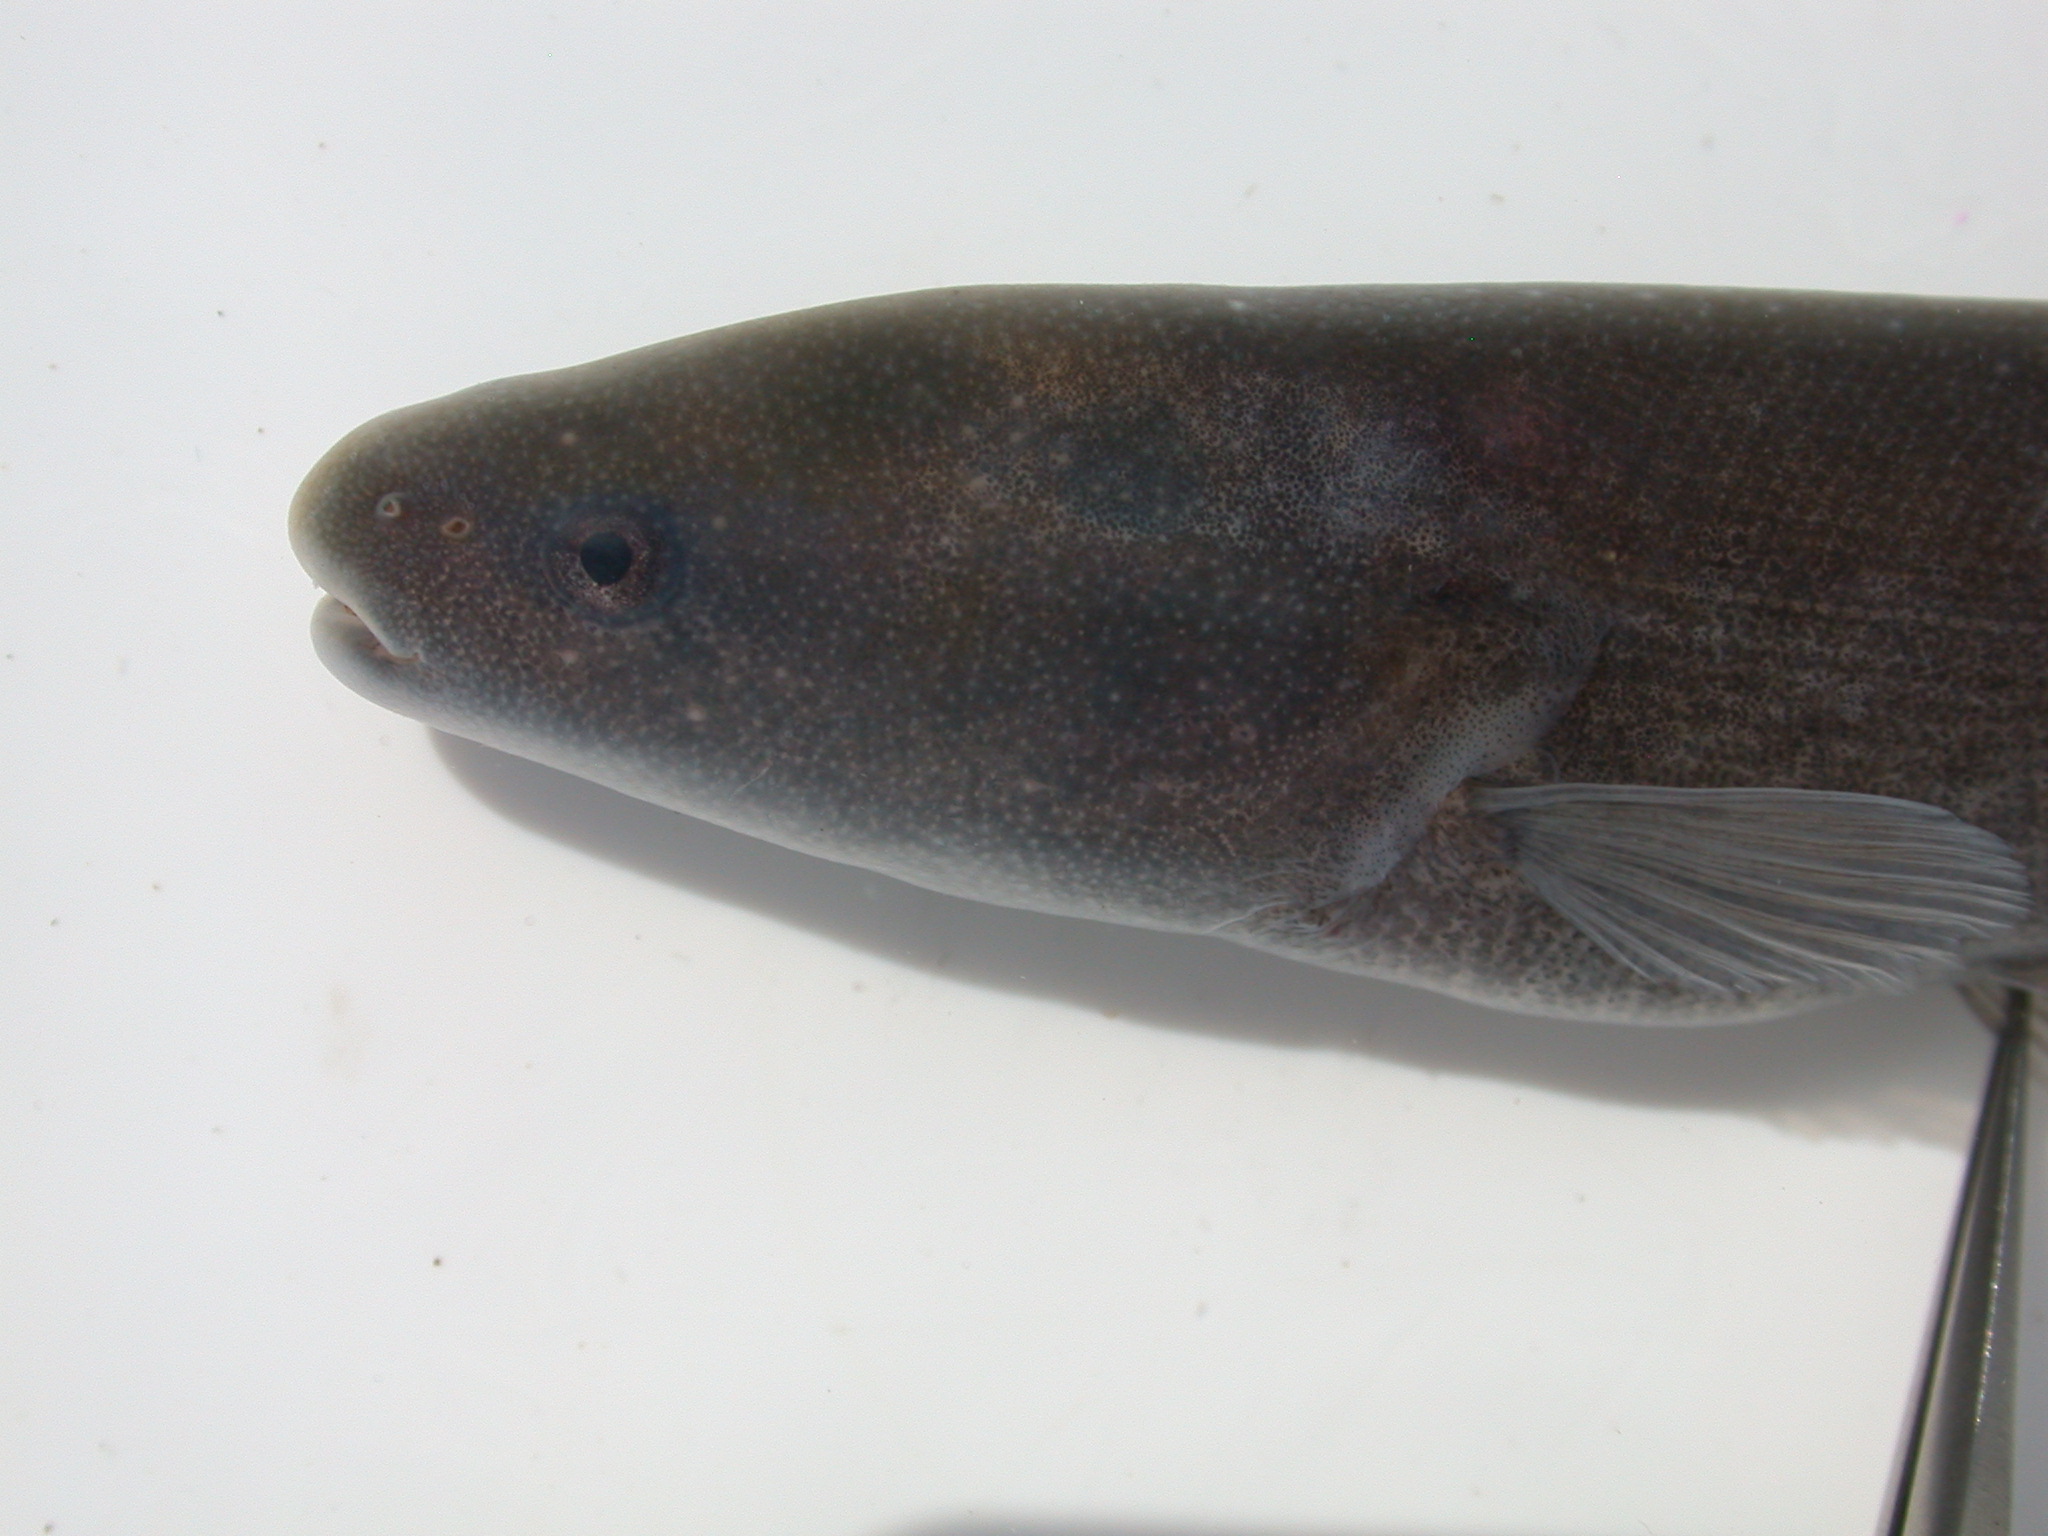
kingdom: Animalia
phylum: Chordata
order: Osteoglossiformes
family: Mormyridae
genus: Mormyrops
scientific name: Mormyrops anguilloides
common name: Cornish jack
